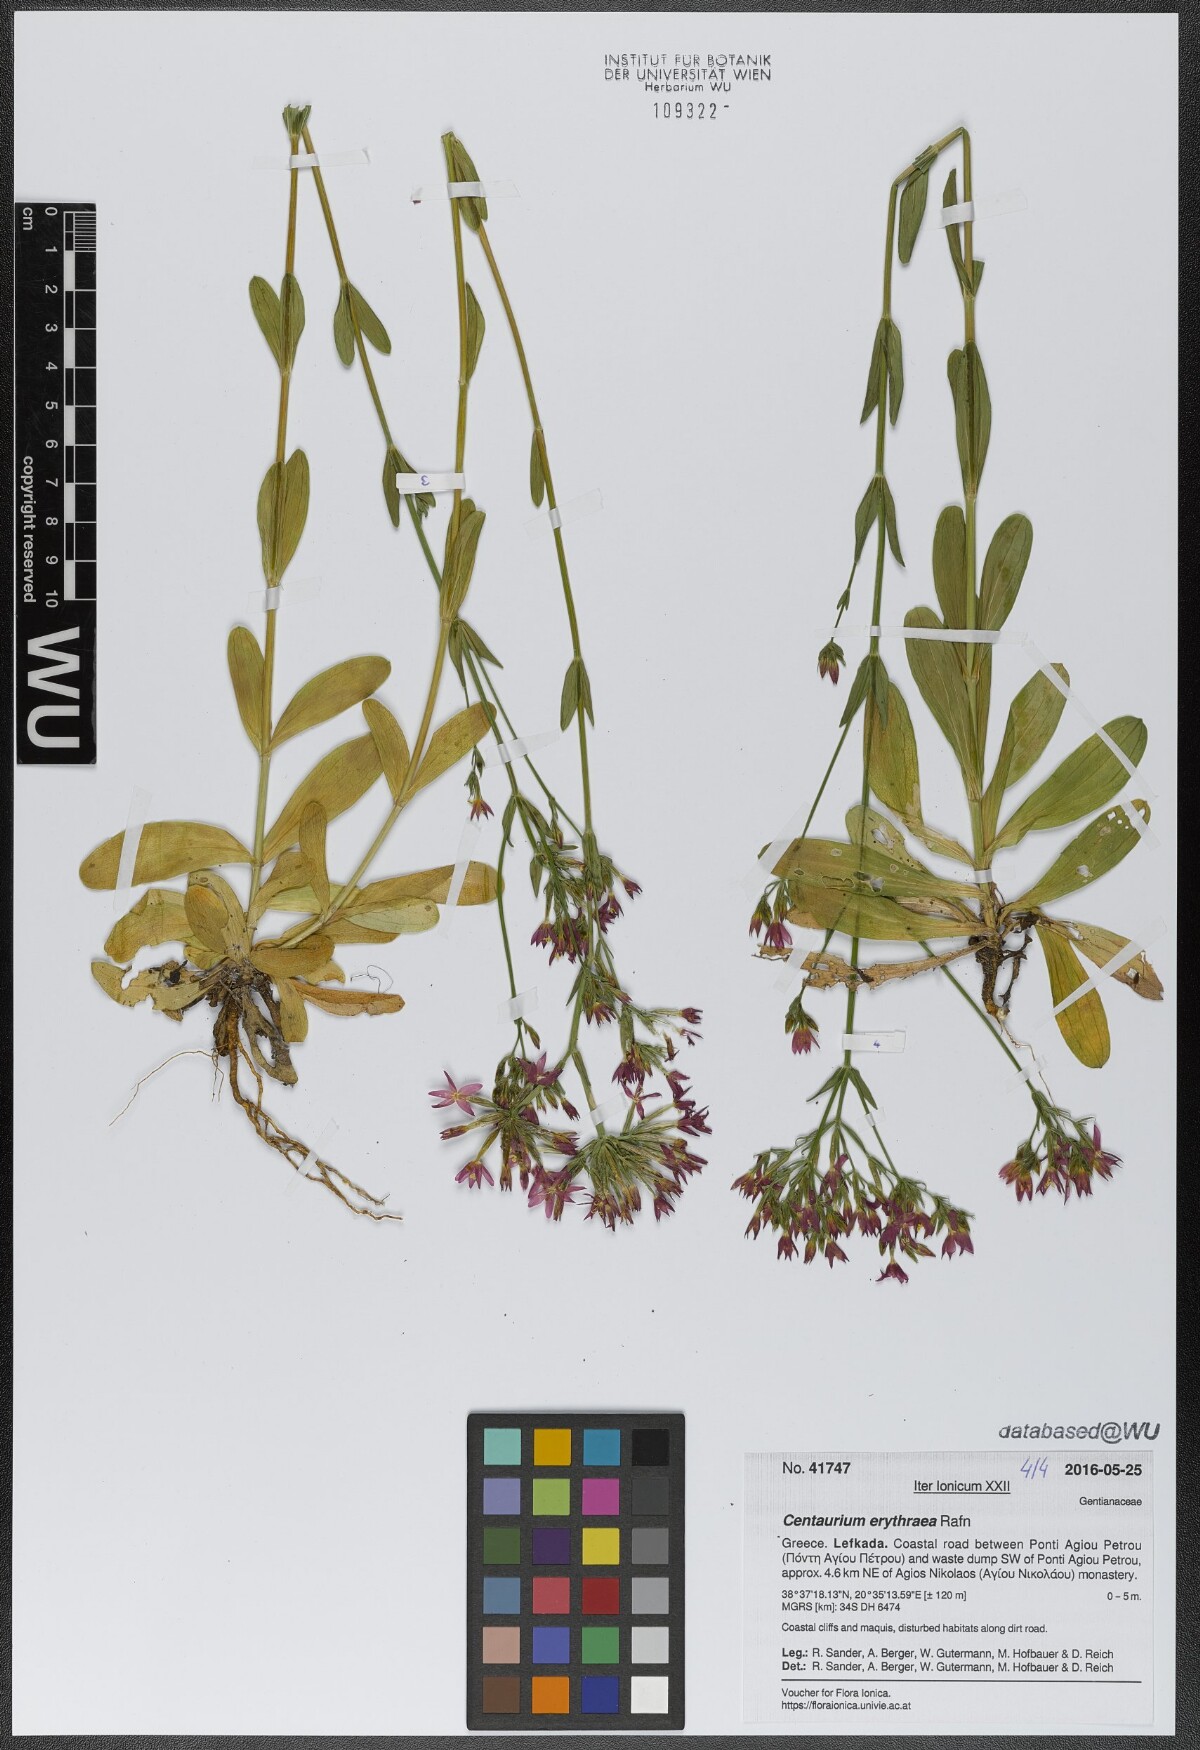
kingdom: Plantae
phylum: Tracheophyta
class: Magnoliopsida
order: Gentianales
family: Gentianaceae
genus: Centaurium
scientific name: Centaurium erythraea
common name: Common centaury
